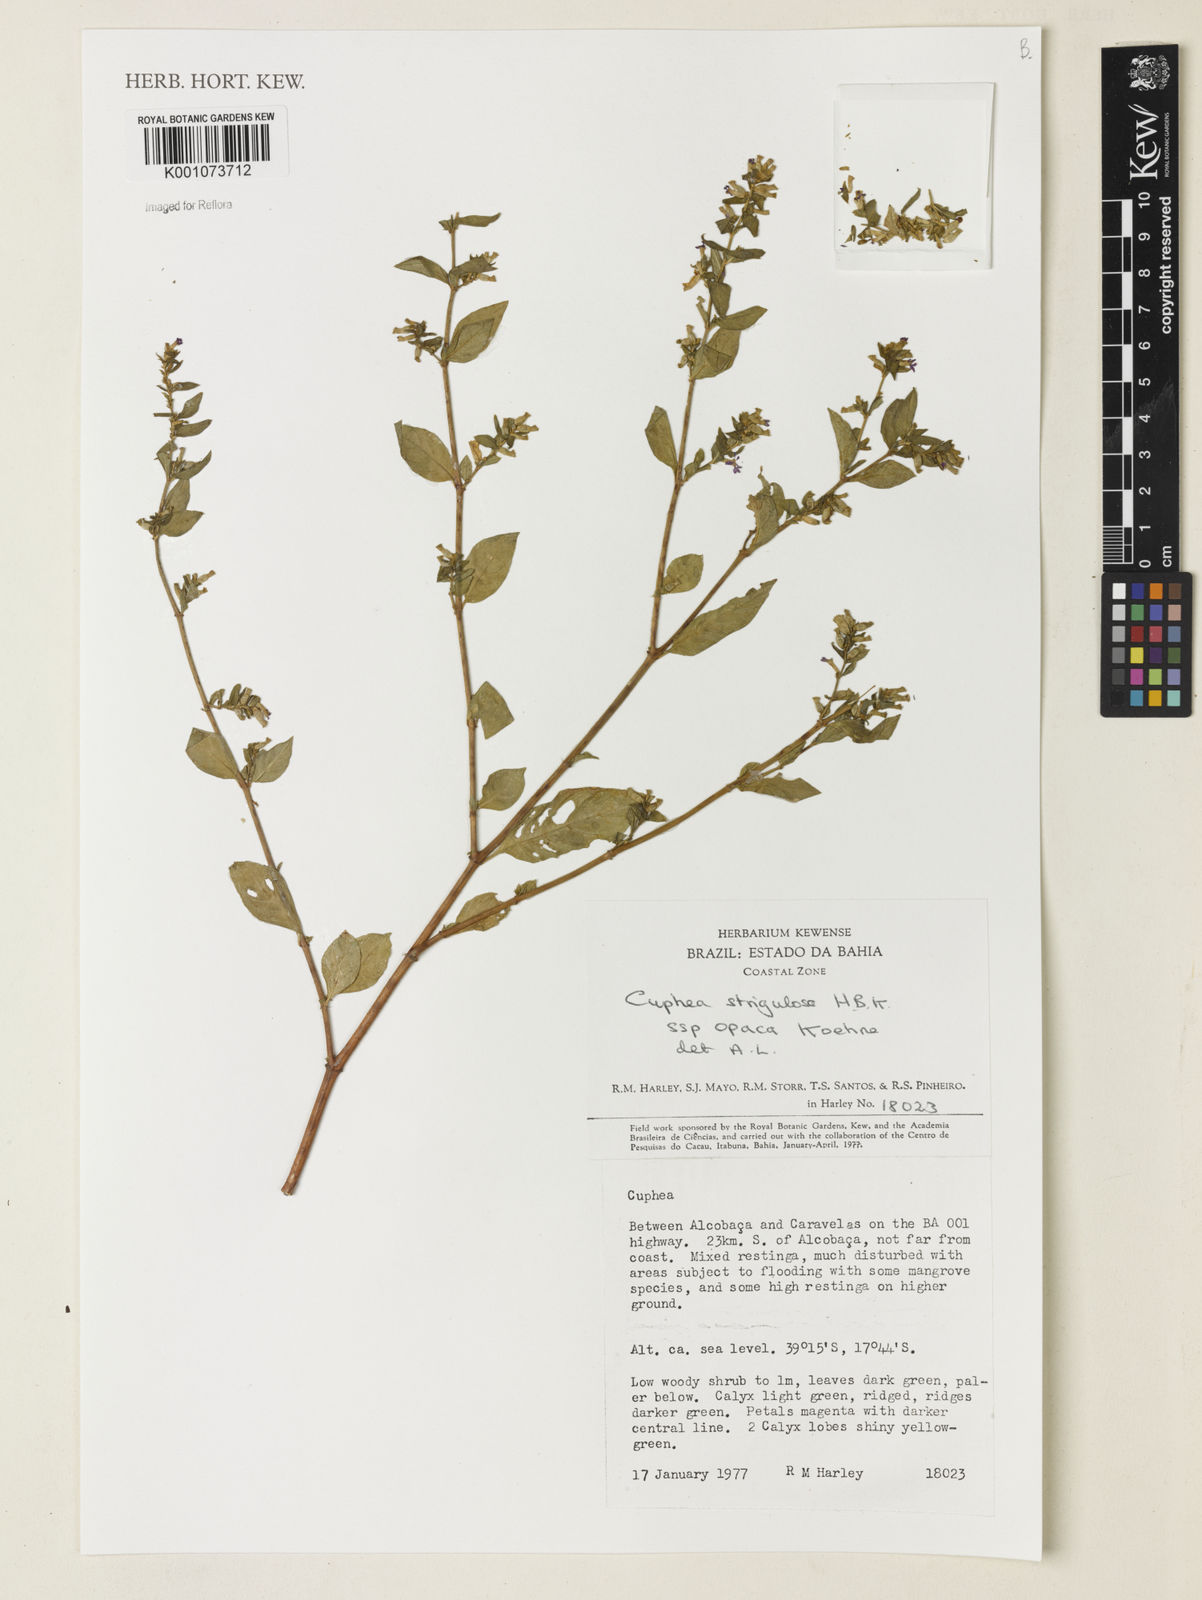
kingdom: Plantae
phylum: Tracheophyta
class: Magnoliopsida
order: Myrtales
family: Lythraceae
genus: Cuphea
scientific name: Cuphea strigulosa
